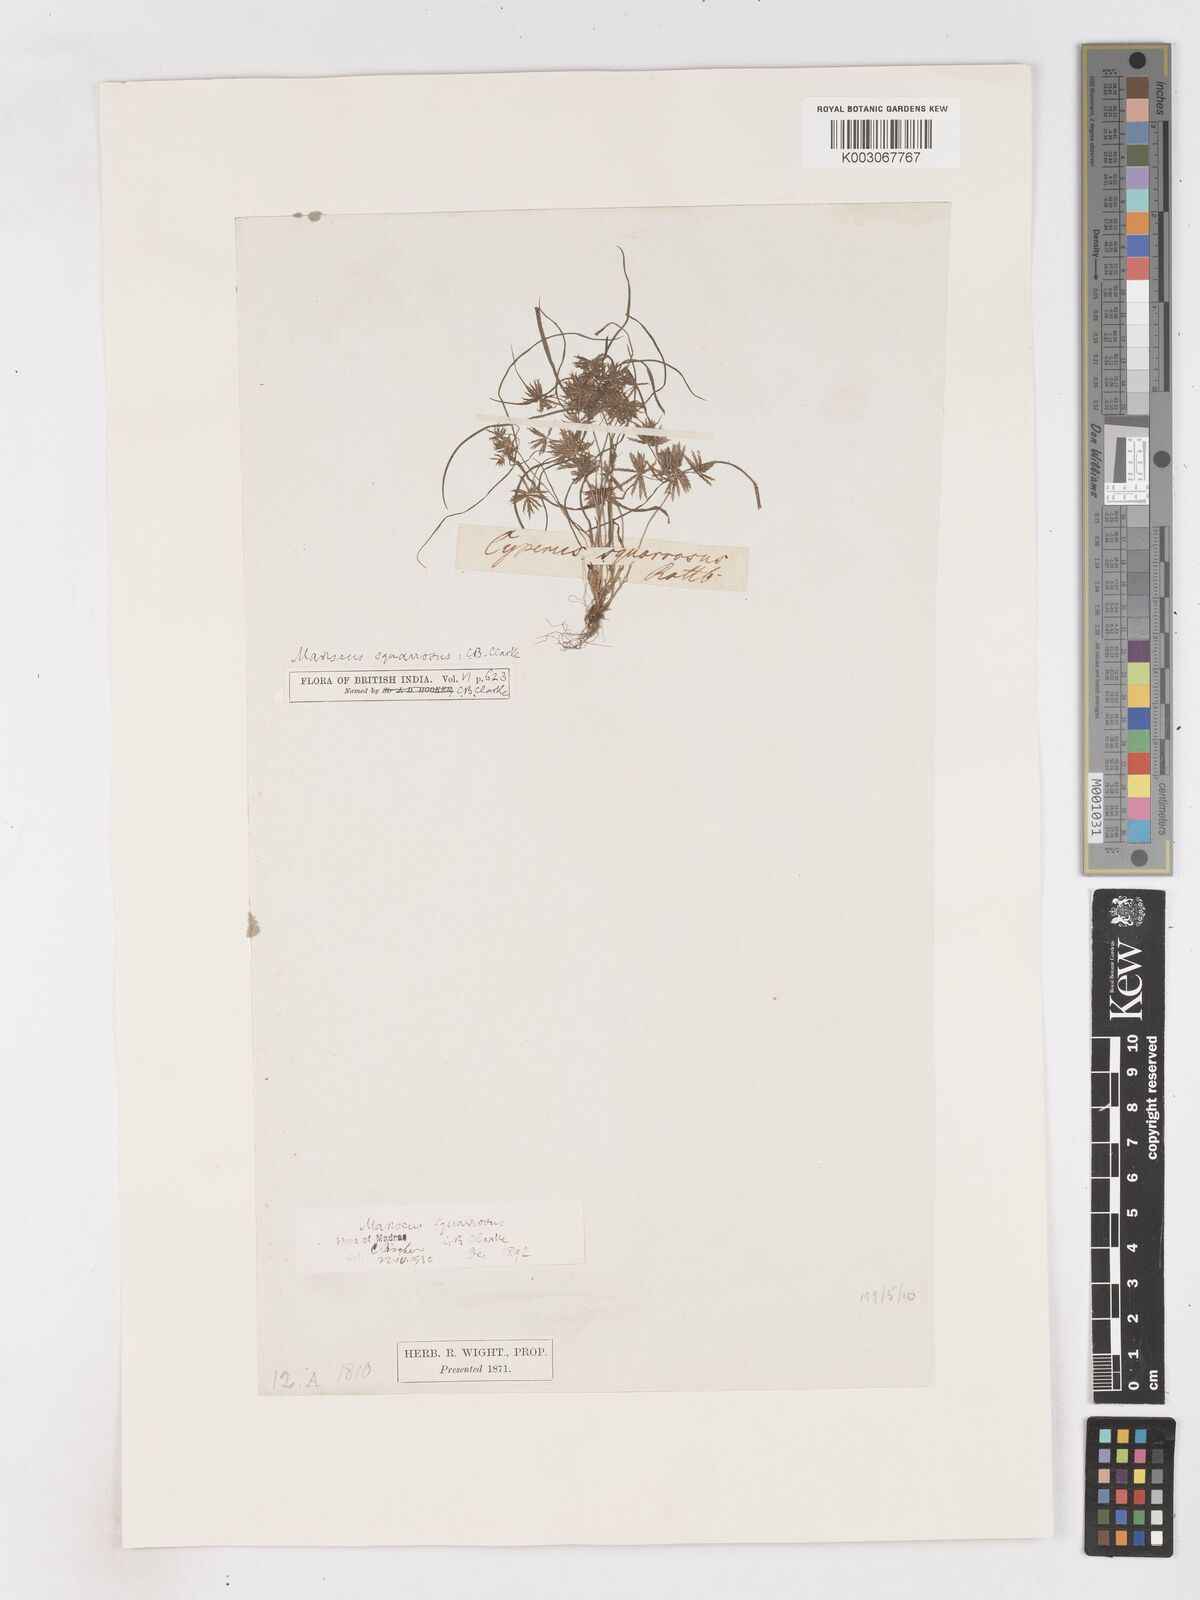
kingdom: Plantae
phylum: Tracheophyta
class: Liliopsida
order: Poales
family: Cyperaceae
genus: Cyperus
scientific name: Cyperus maderaspatanus
